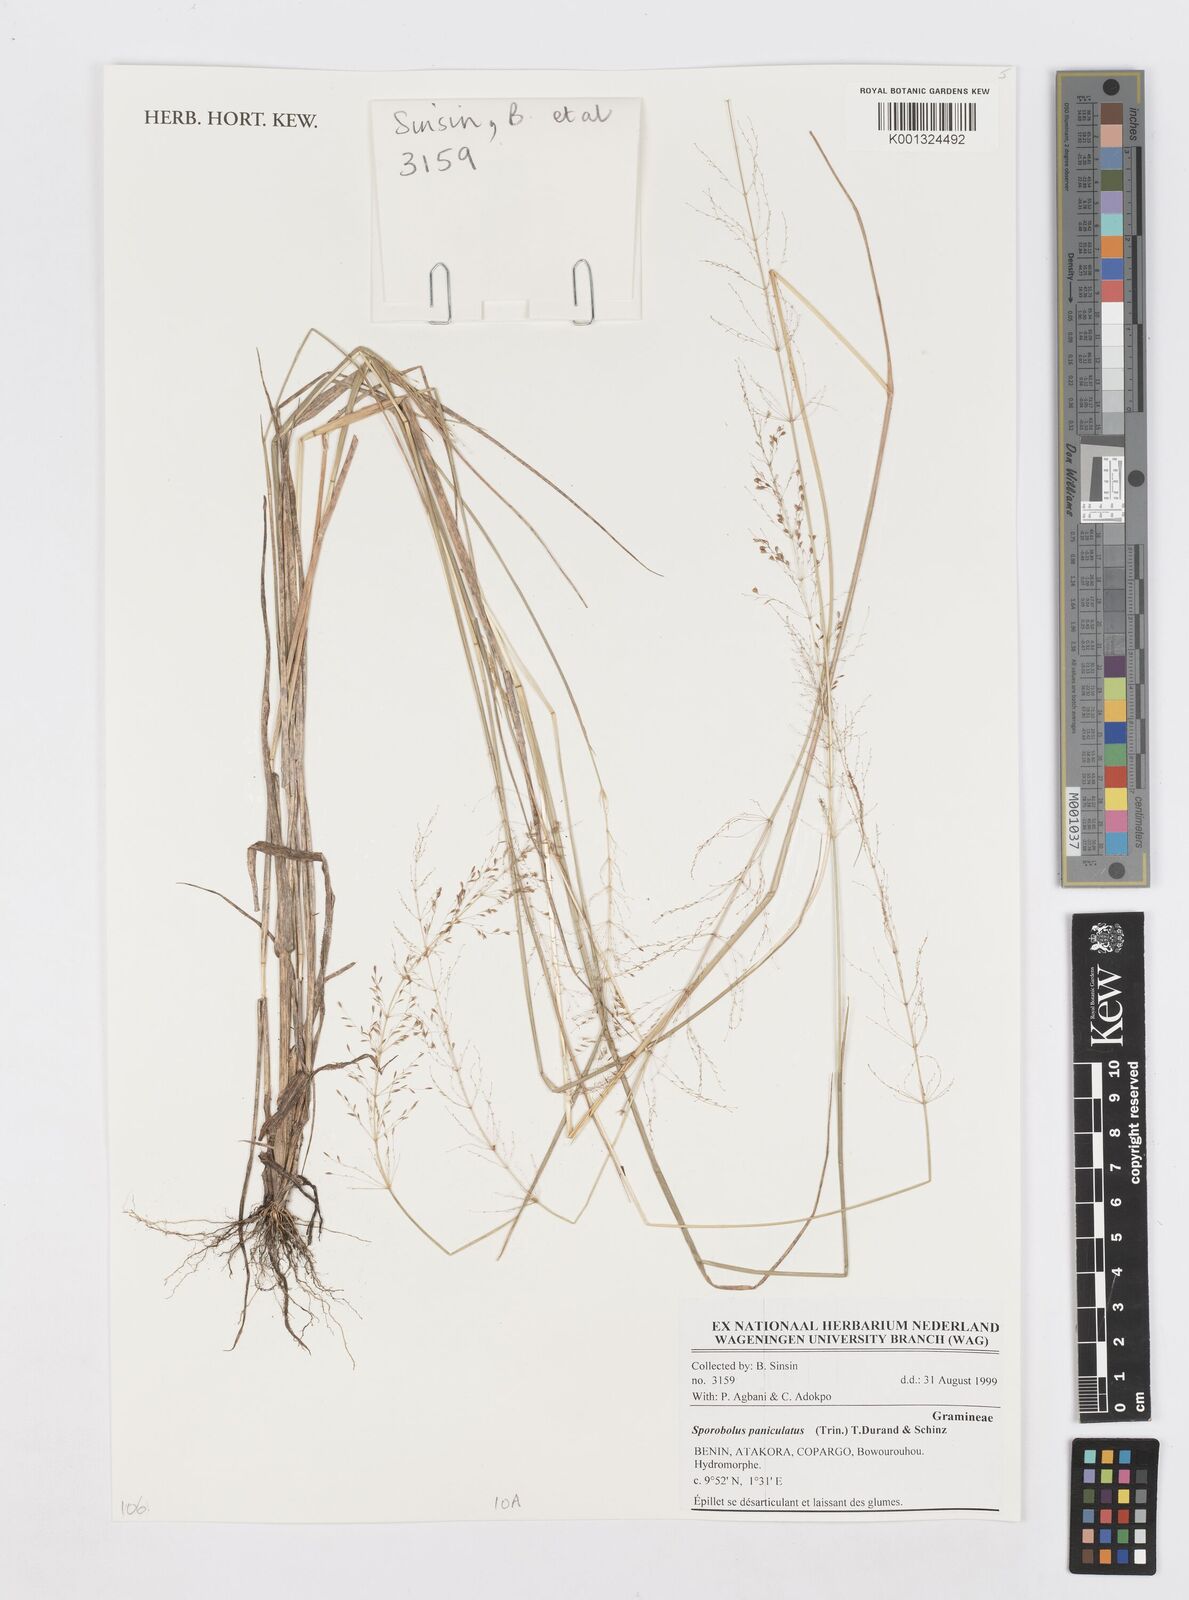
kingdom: Plantae
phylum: Tracheophyta
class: Liliopsida
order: Poales
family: Poaceae
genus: Sporobolus
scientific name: Sporobolus paniculatus
